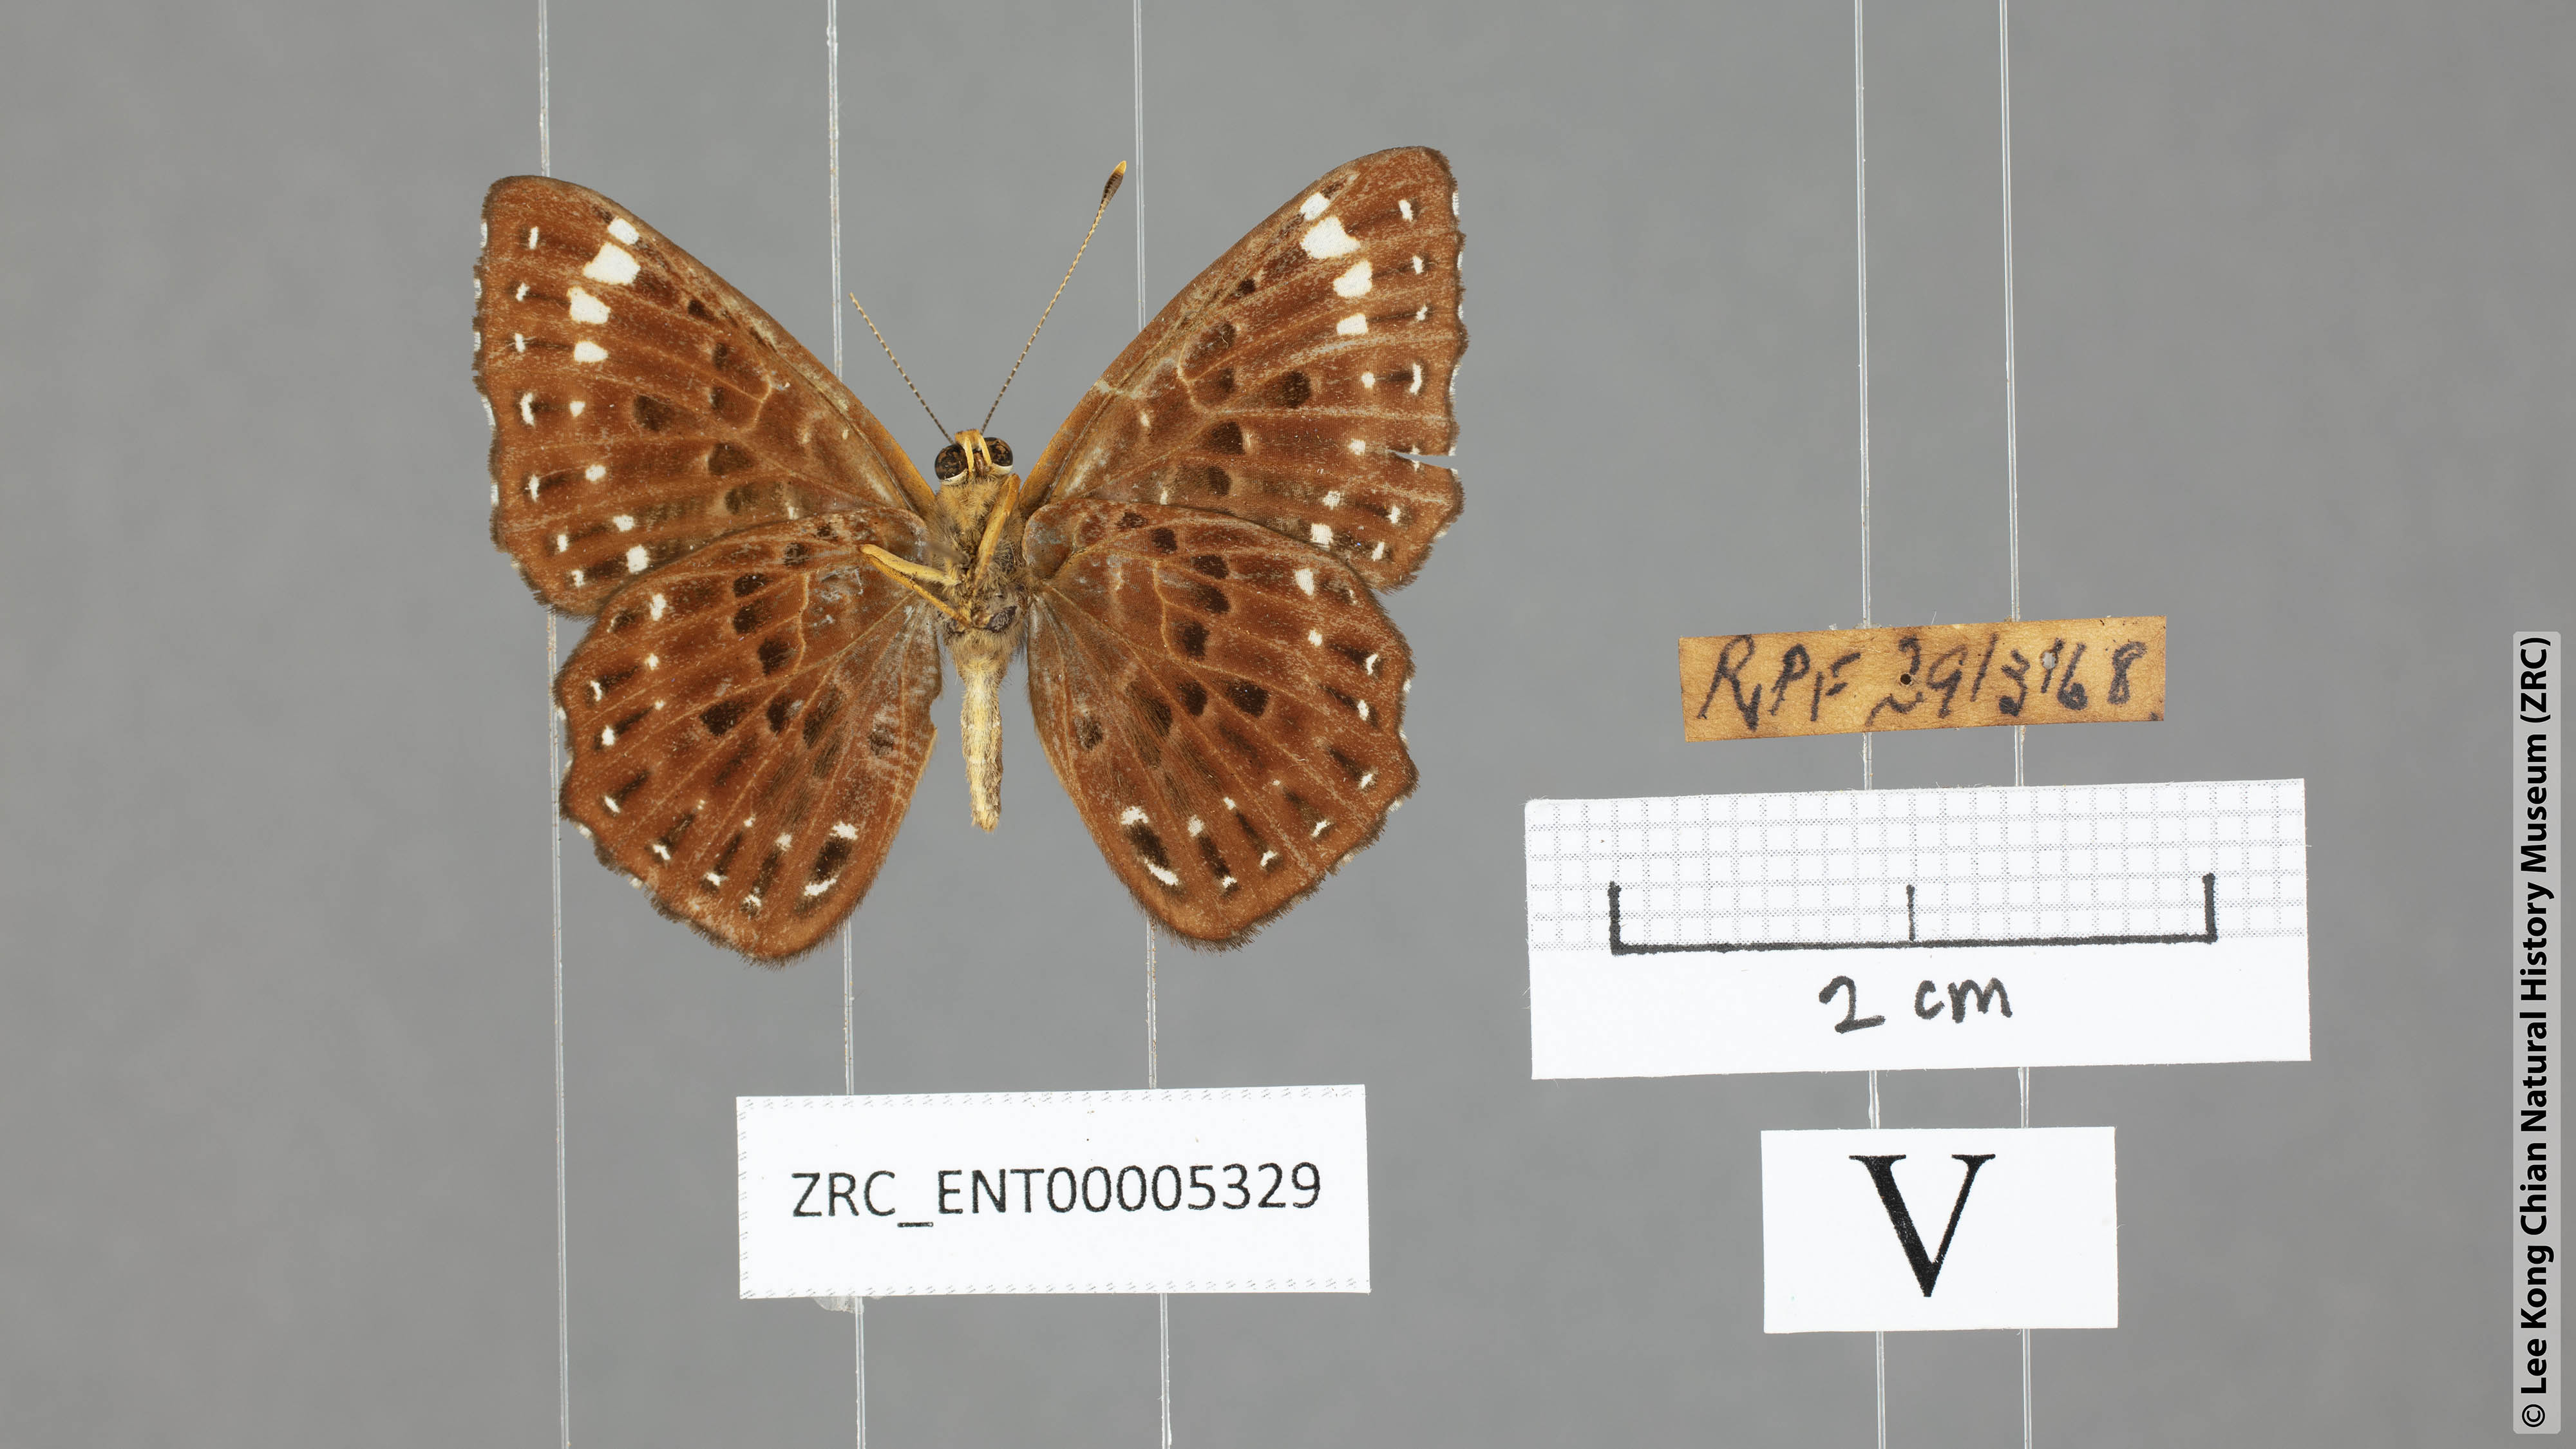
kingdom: Animalia
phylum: Arthropoda
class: Insecta
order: Lepidoptera
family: Riodinidae
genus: Zemeros
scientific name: Zemeros flegyas
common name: Punchinello
